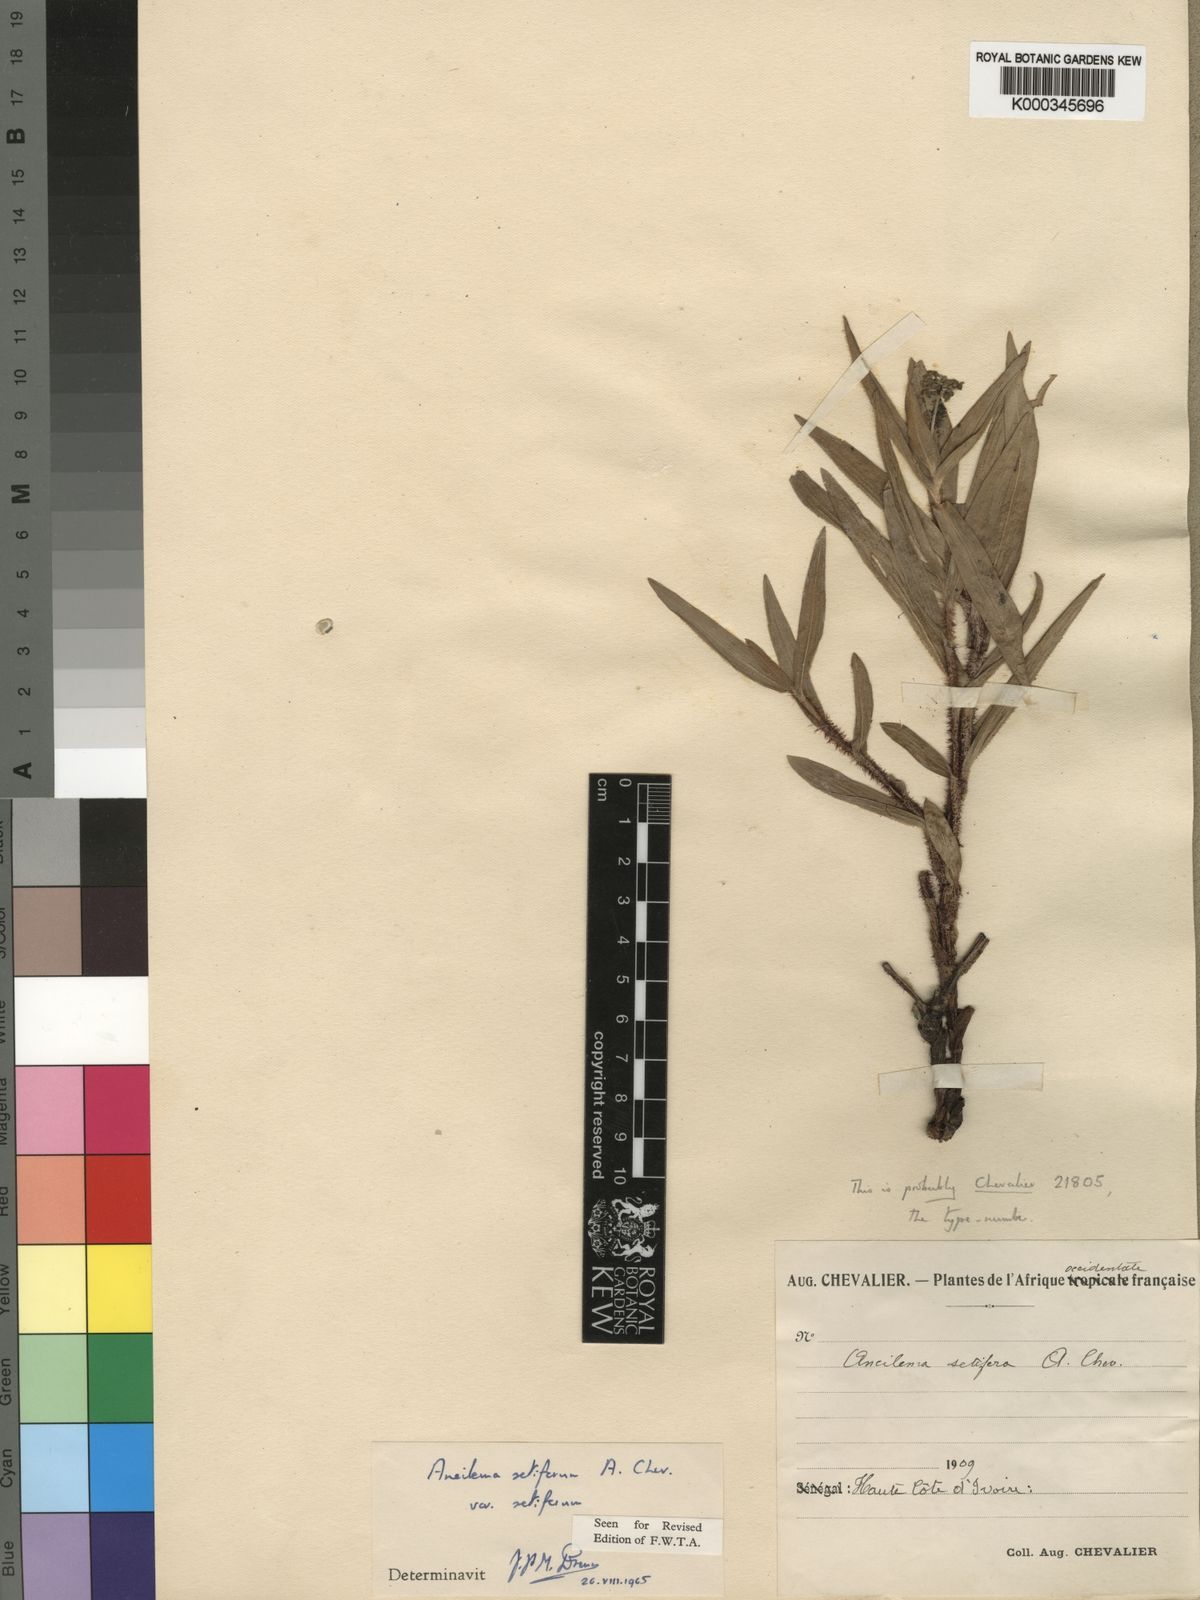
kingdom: Plantae
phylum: Tracheophyta
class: Liliopsida
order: Commelinales
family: Commelinaceae
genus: Aneilema
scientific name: Aneilema setiferum
